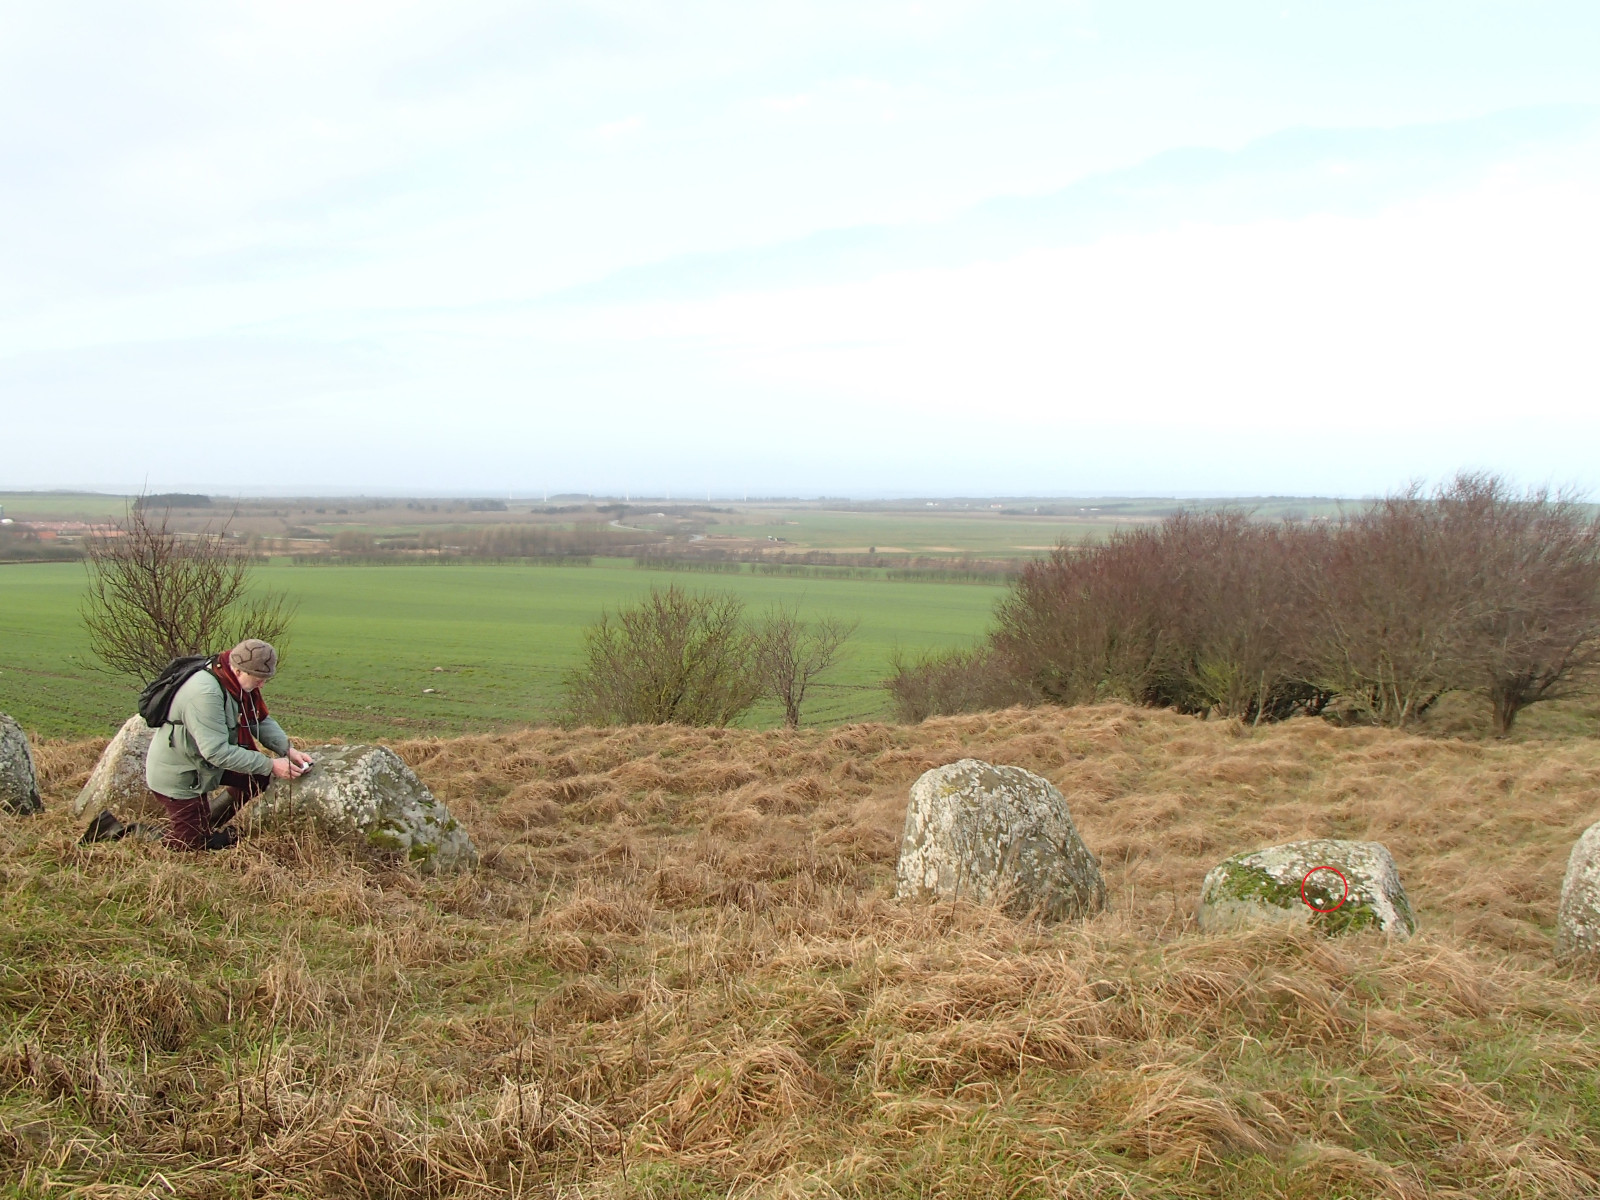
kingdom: Fungi
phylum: Basidiomycota
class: Agaricomycetes
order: Agaricales
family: Strophariaceae
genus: Deconica
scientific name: Deconica
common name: stråhat
